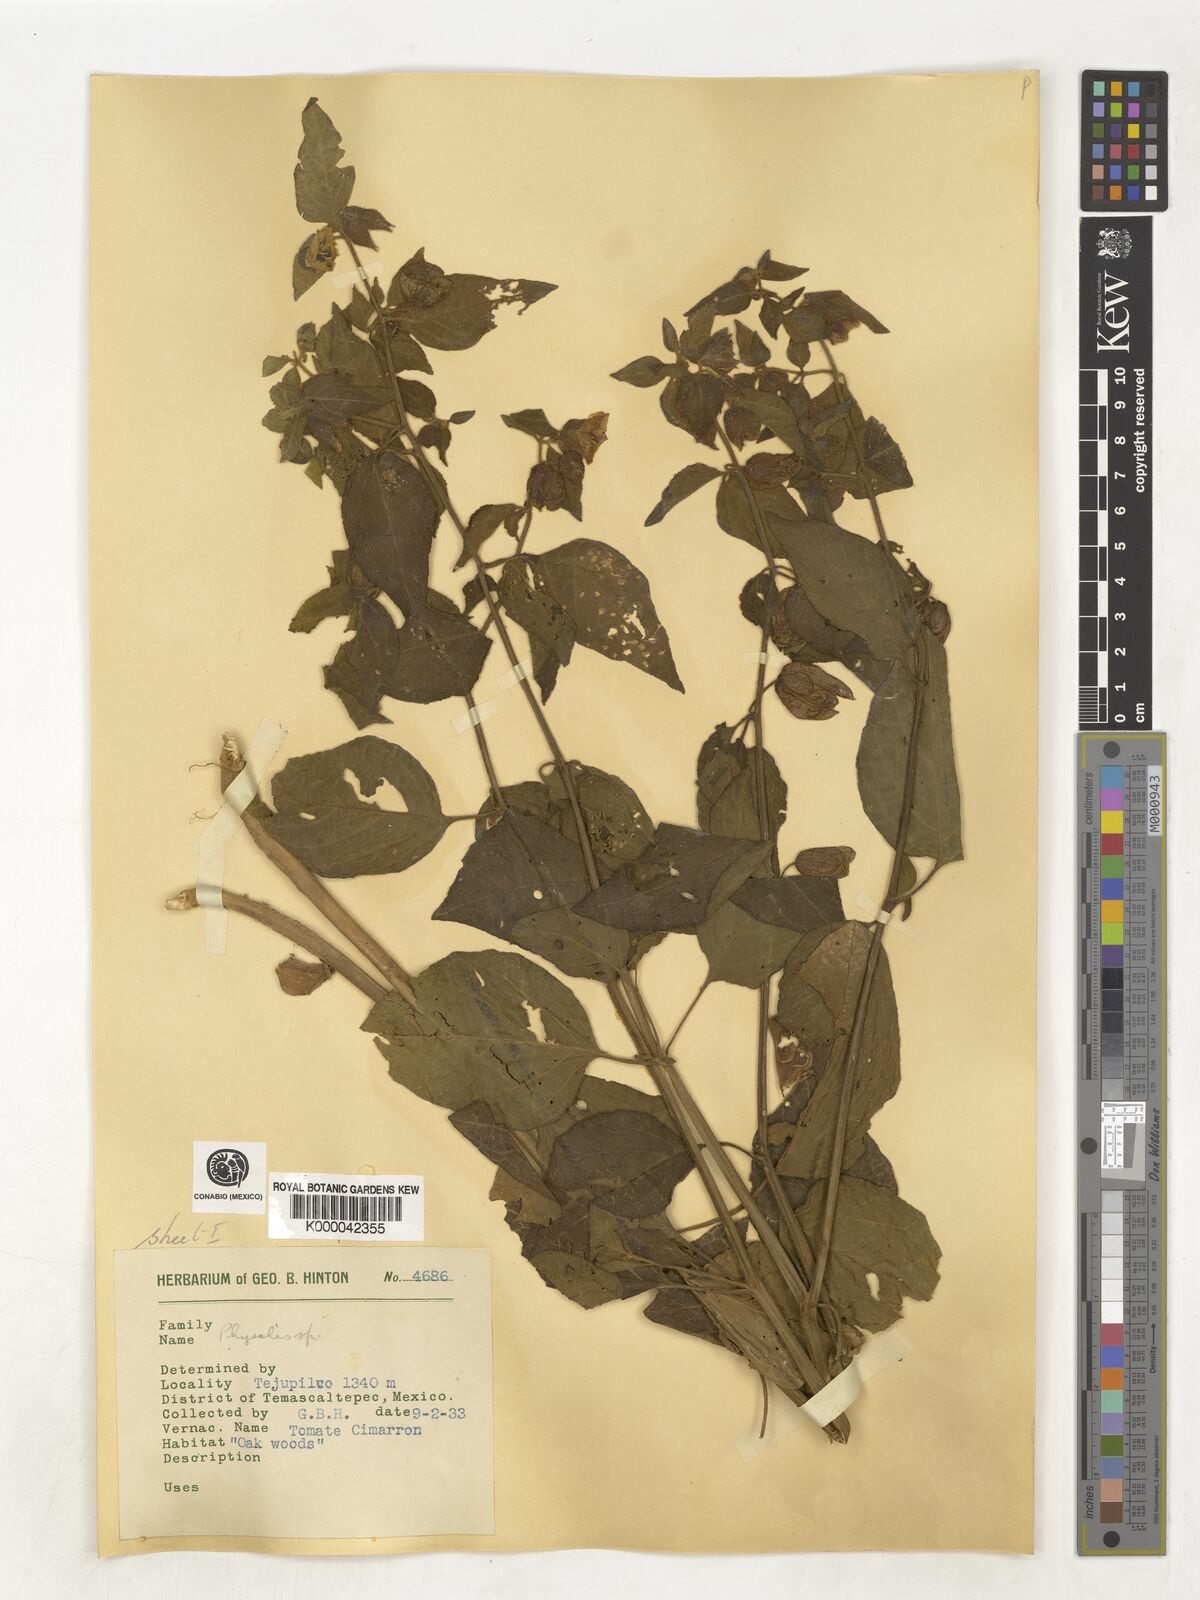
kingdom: Plantae
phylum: Tracheophyta
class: Magnoliopsida
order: Solanales
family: Solanaceae
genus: Physalis
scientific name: Physalis
